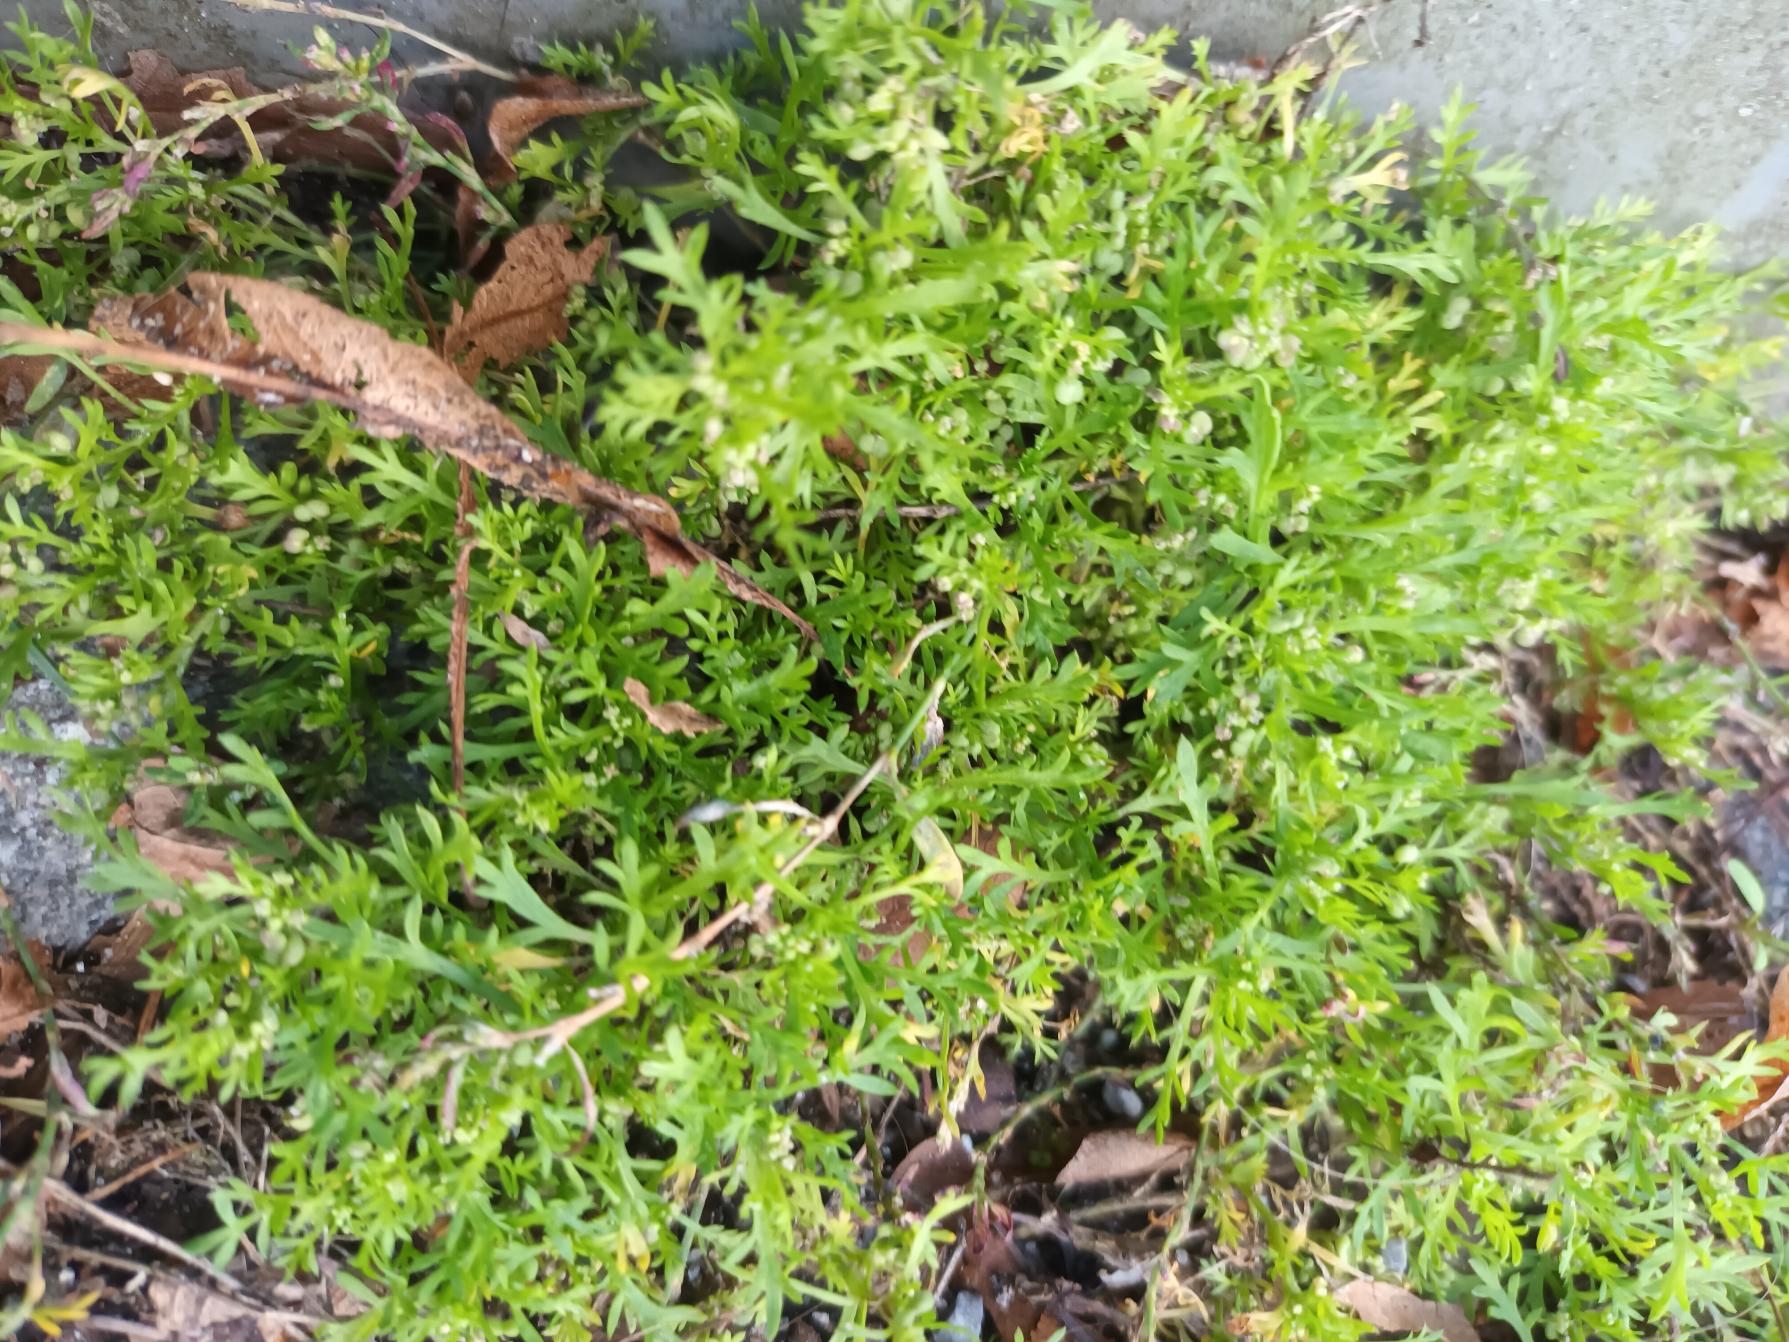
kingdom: Plantae
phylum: Tracheophyta
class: Magnoliopsida
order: Brassicales
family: Brassicaceae
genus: Lepidium
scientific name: Lepidium didymum
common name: Liden ravnefod
